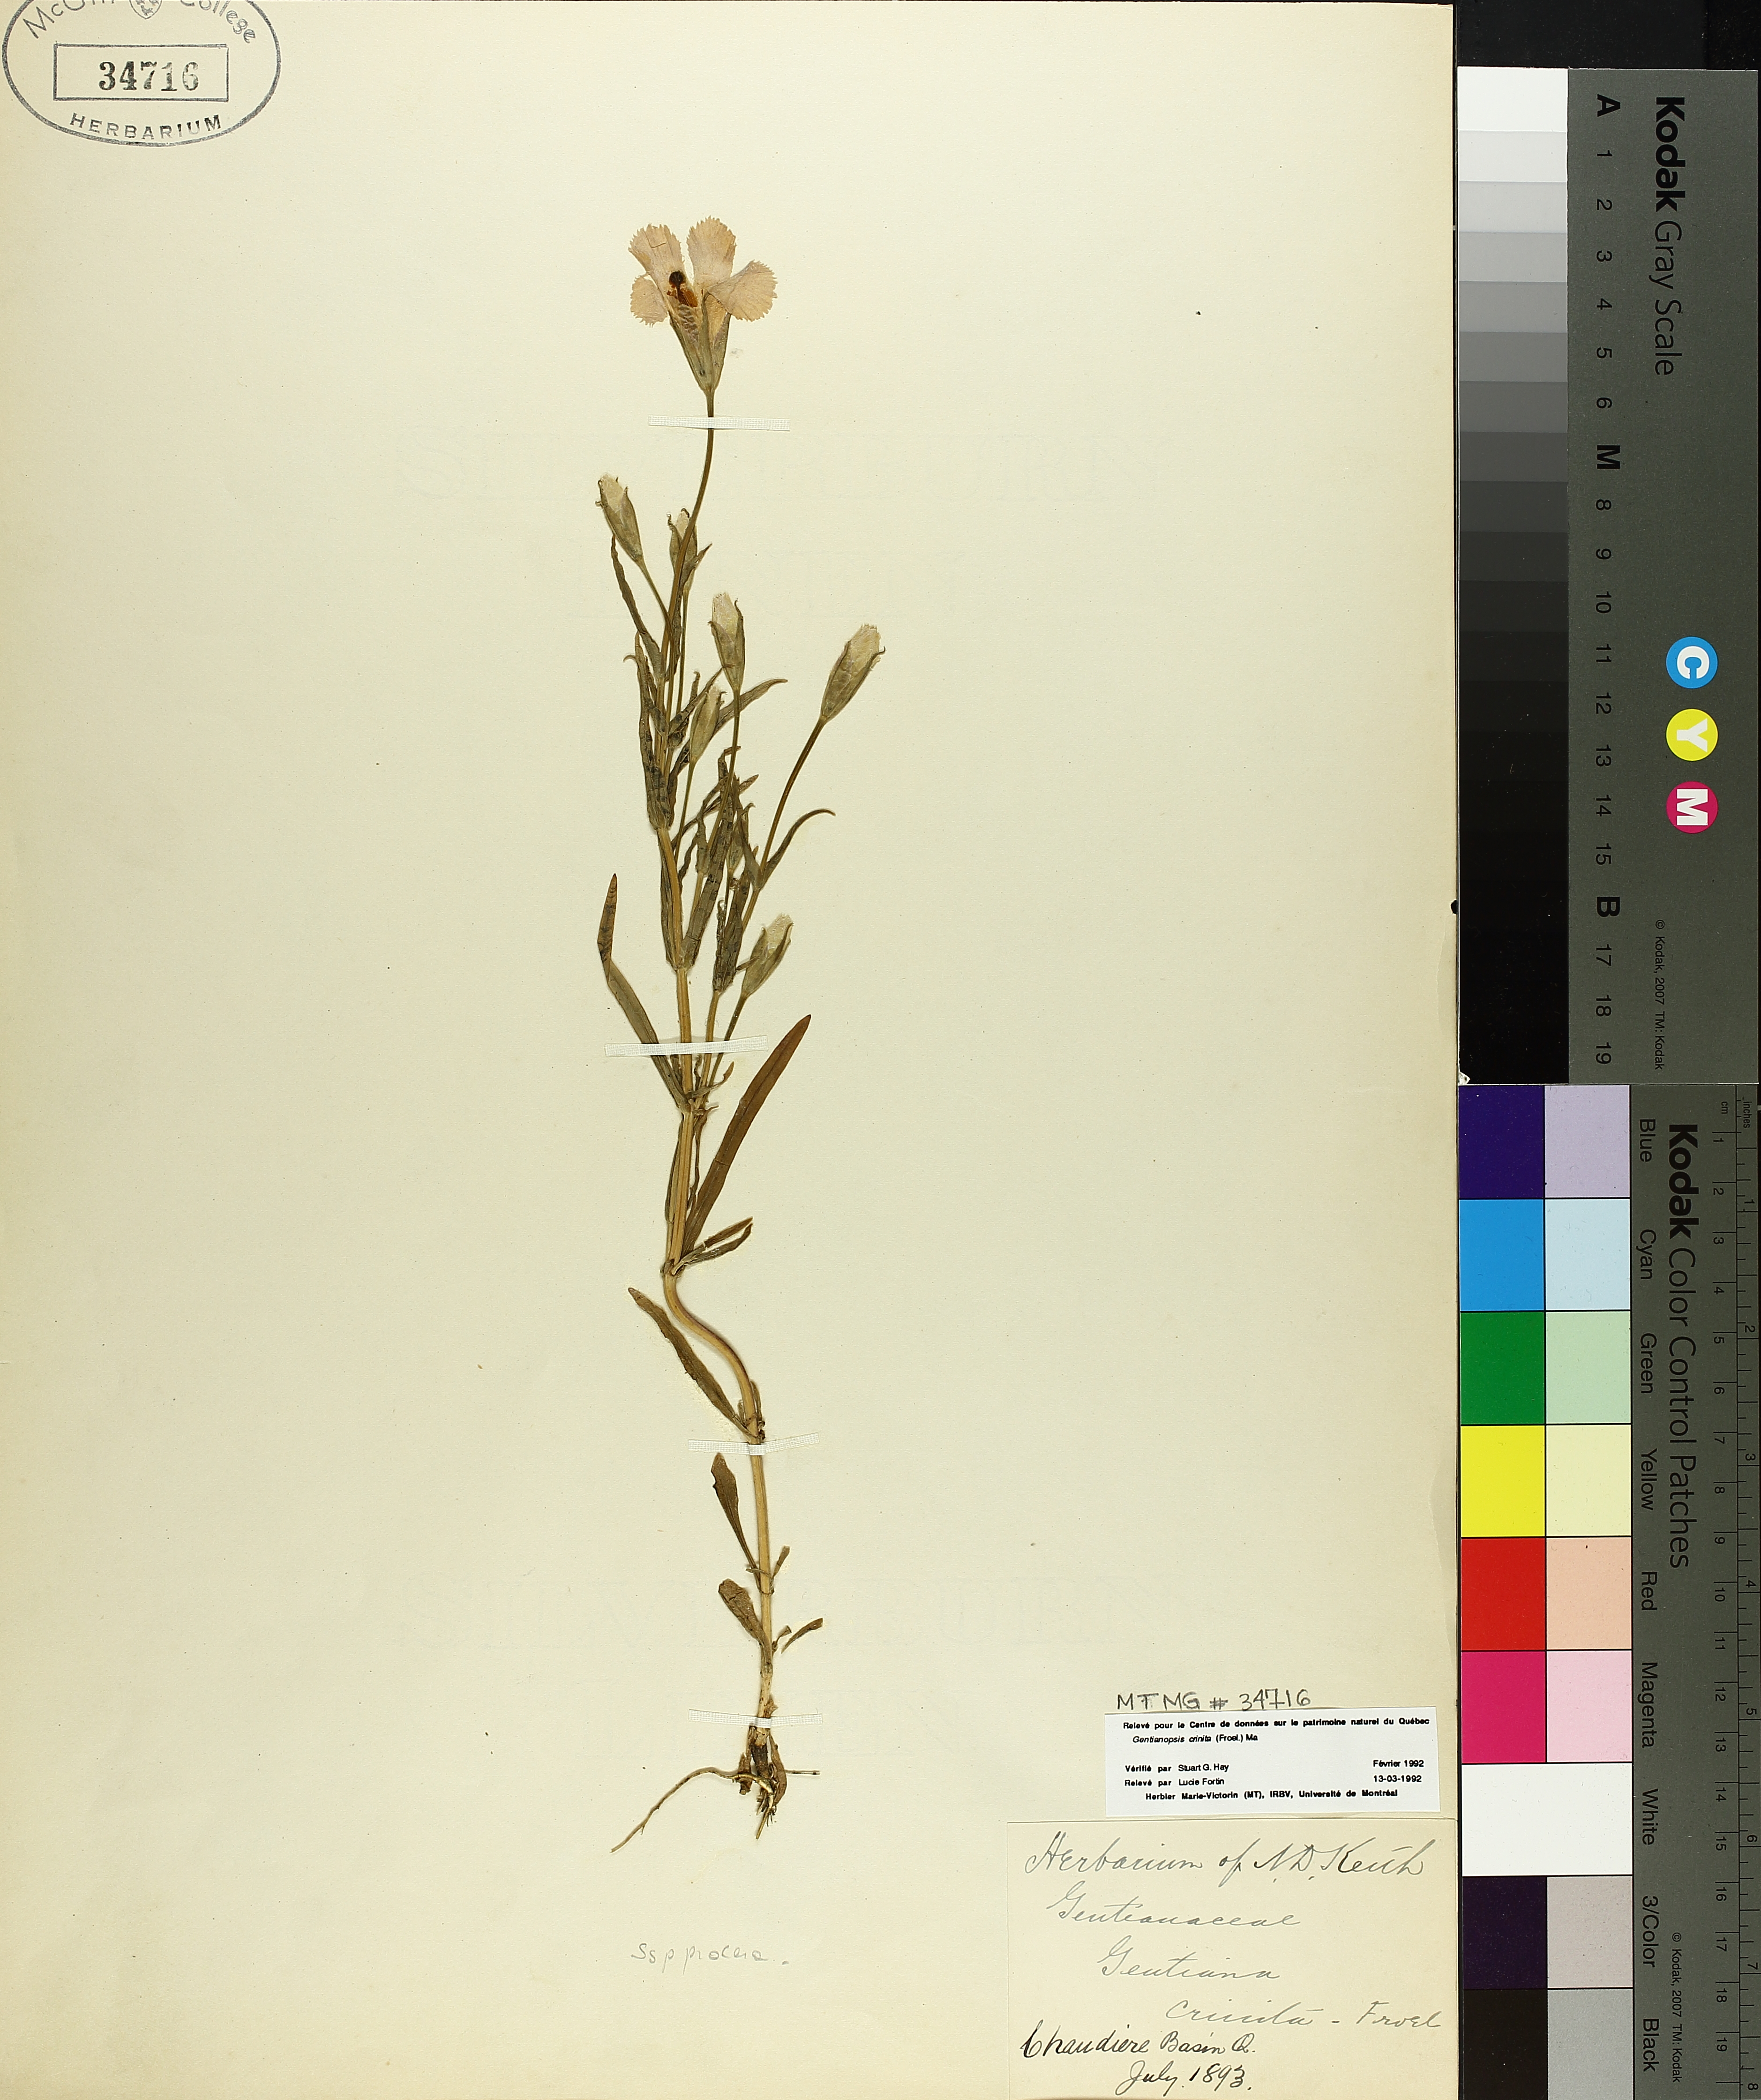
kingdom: Plantae
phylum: Tracheophyta
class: Magnoliopsida
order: Gentianales
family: Gentianaceae
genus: Gentianopsis
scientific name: Gentianopsis crinita
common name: Fringed-gentian
